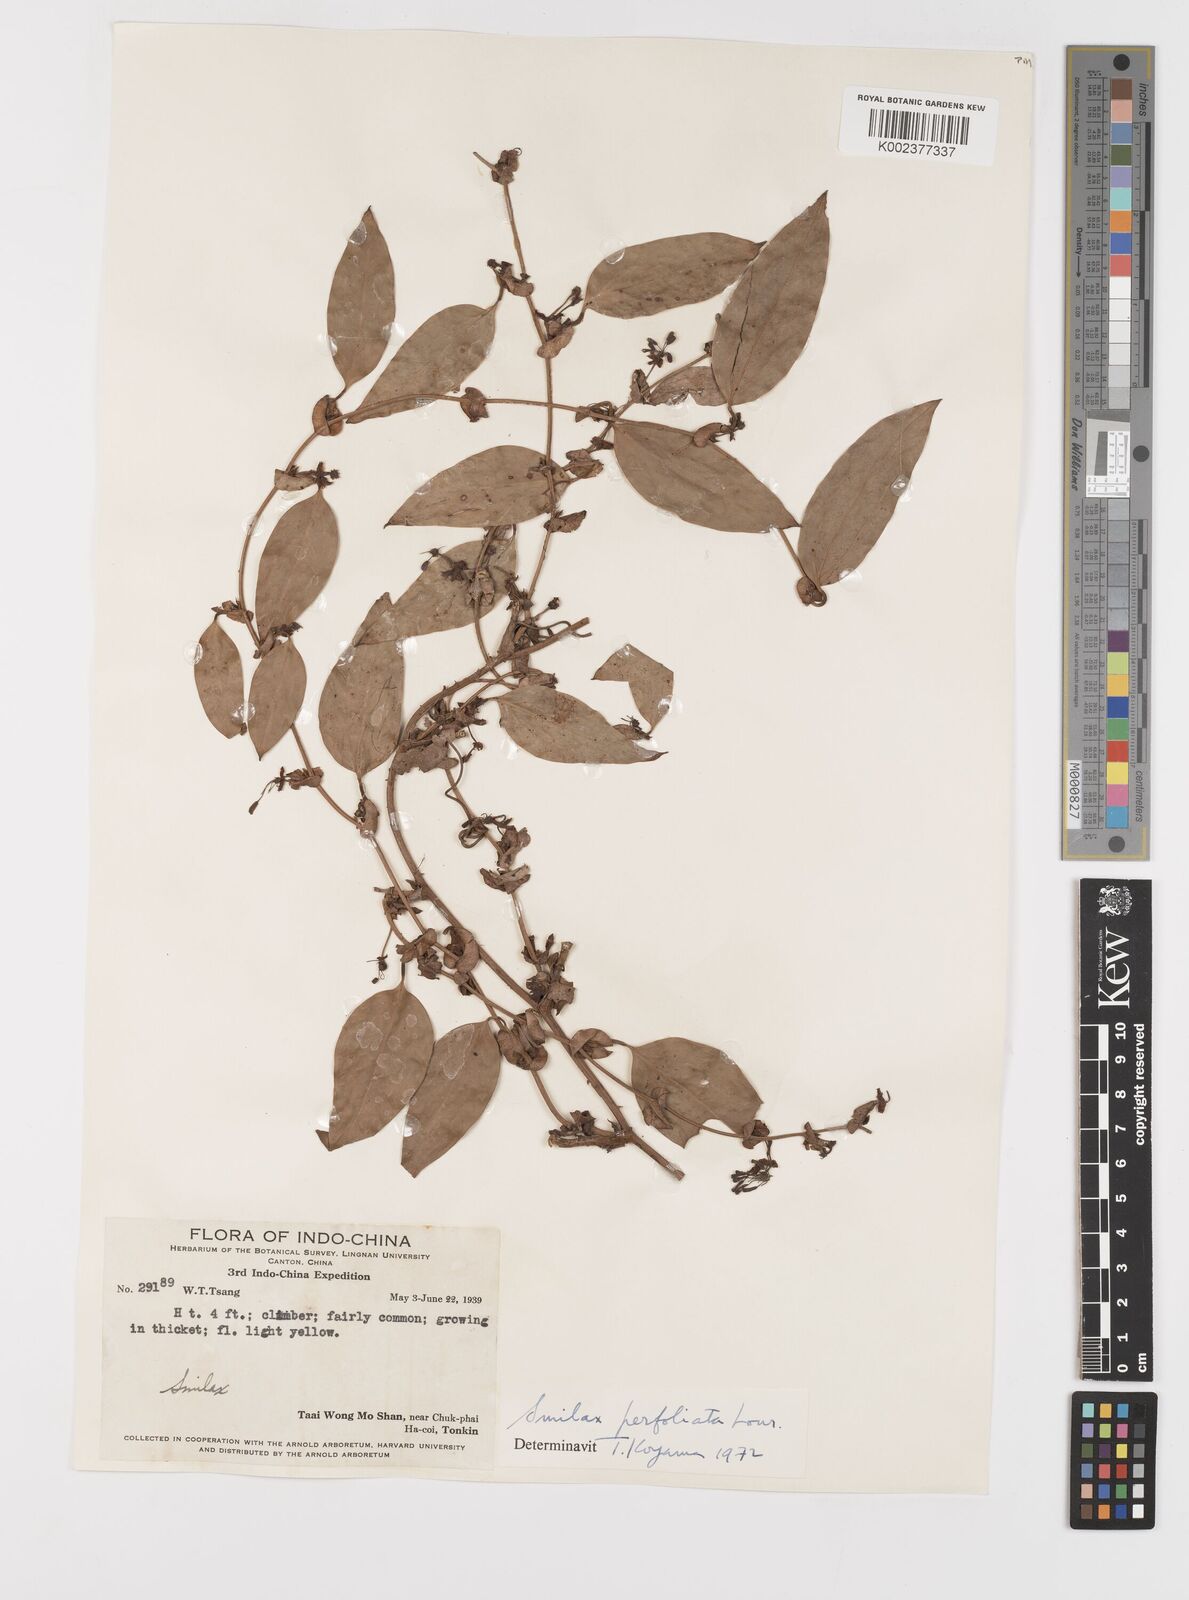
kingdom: Plantae
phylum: Tracheophyta
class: Liliopsida
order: Liliales
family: Smilacaceae
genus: Smilax
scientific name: Smilax perfoliata
